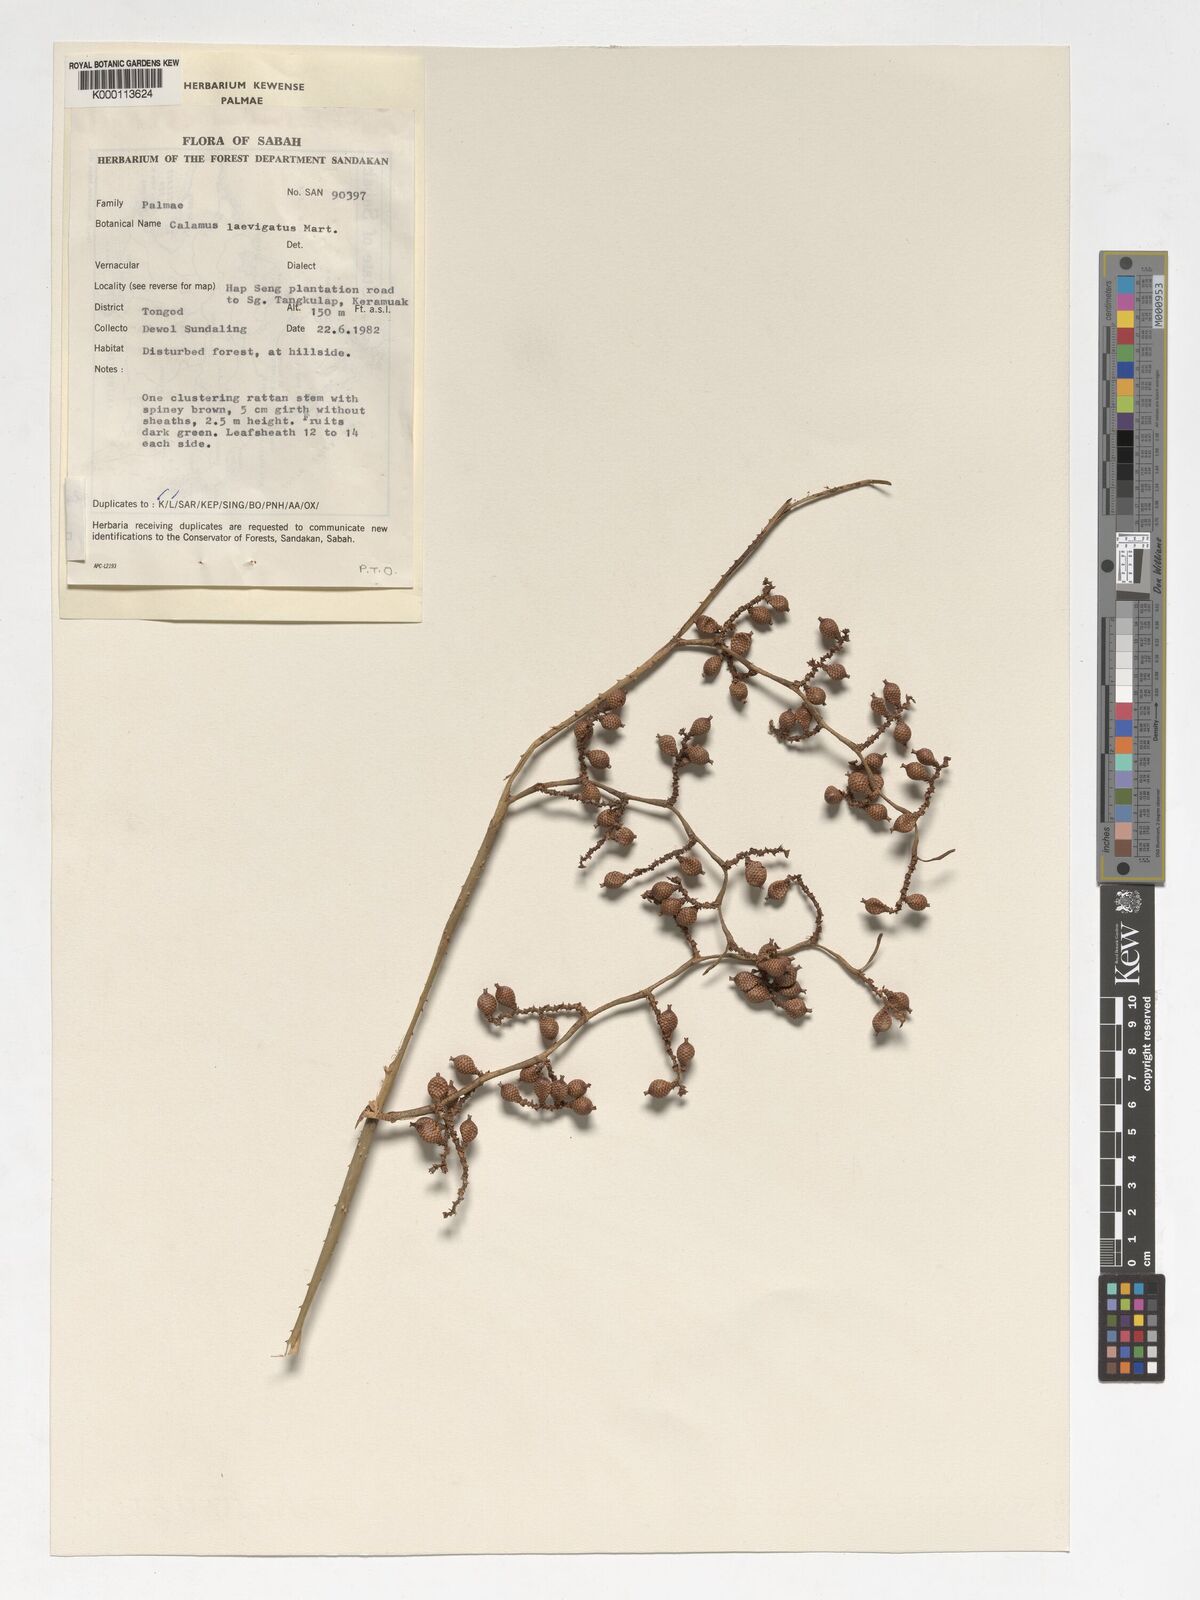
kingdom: Plantae
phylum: Tracheophyta
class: Liliopsida
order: Arecales
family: Arecaceae
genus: Calamus
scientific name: Calamus
